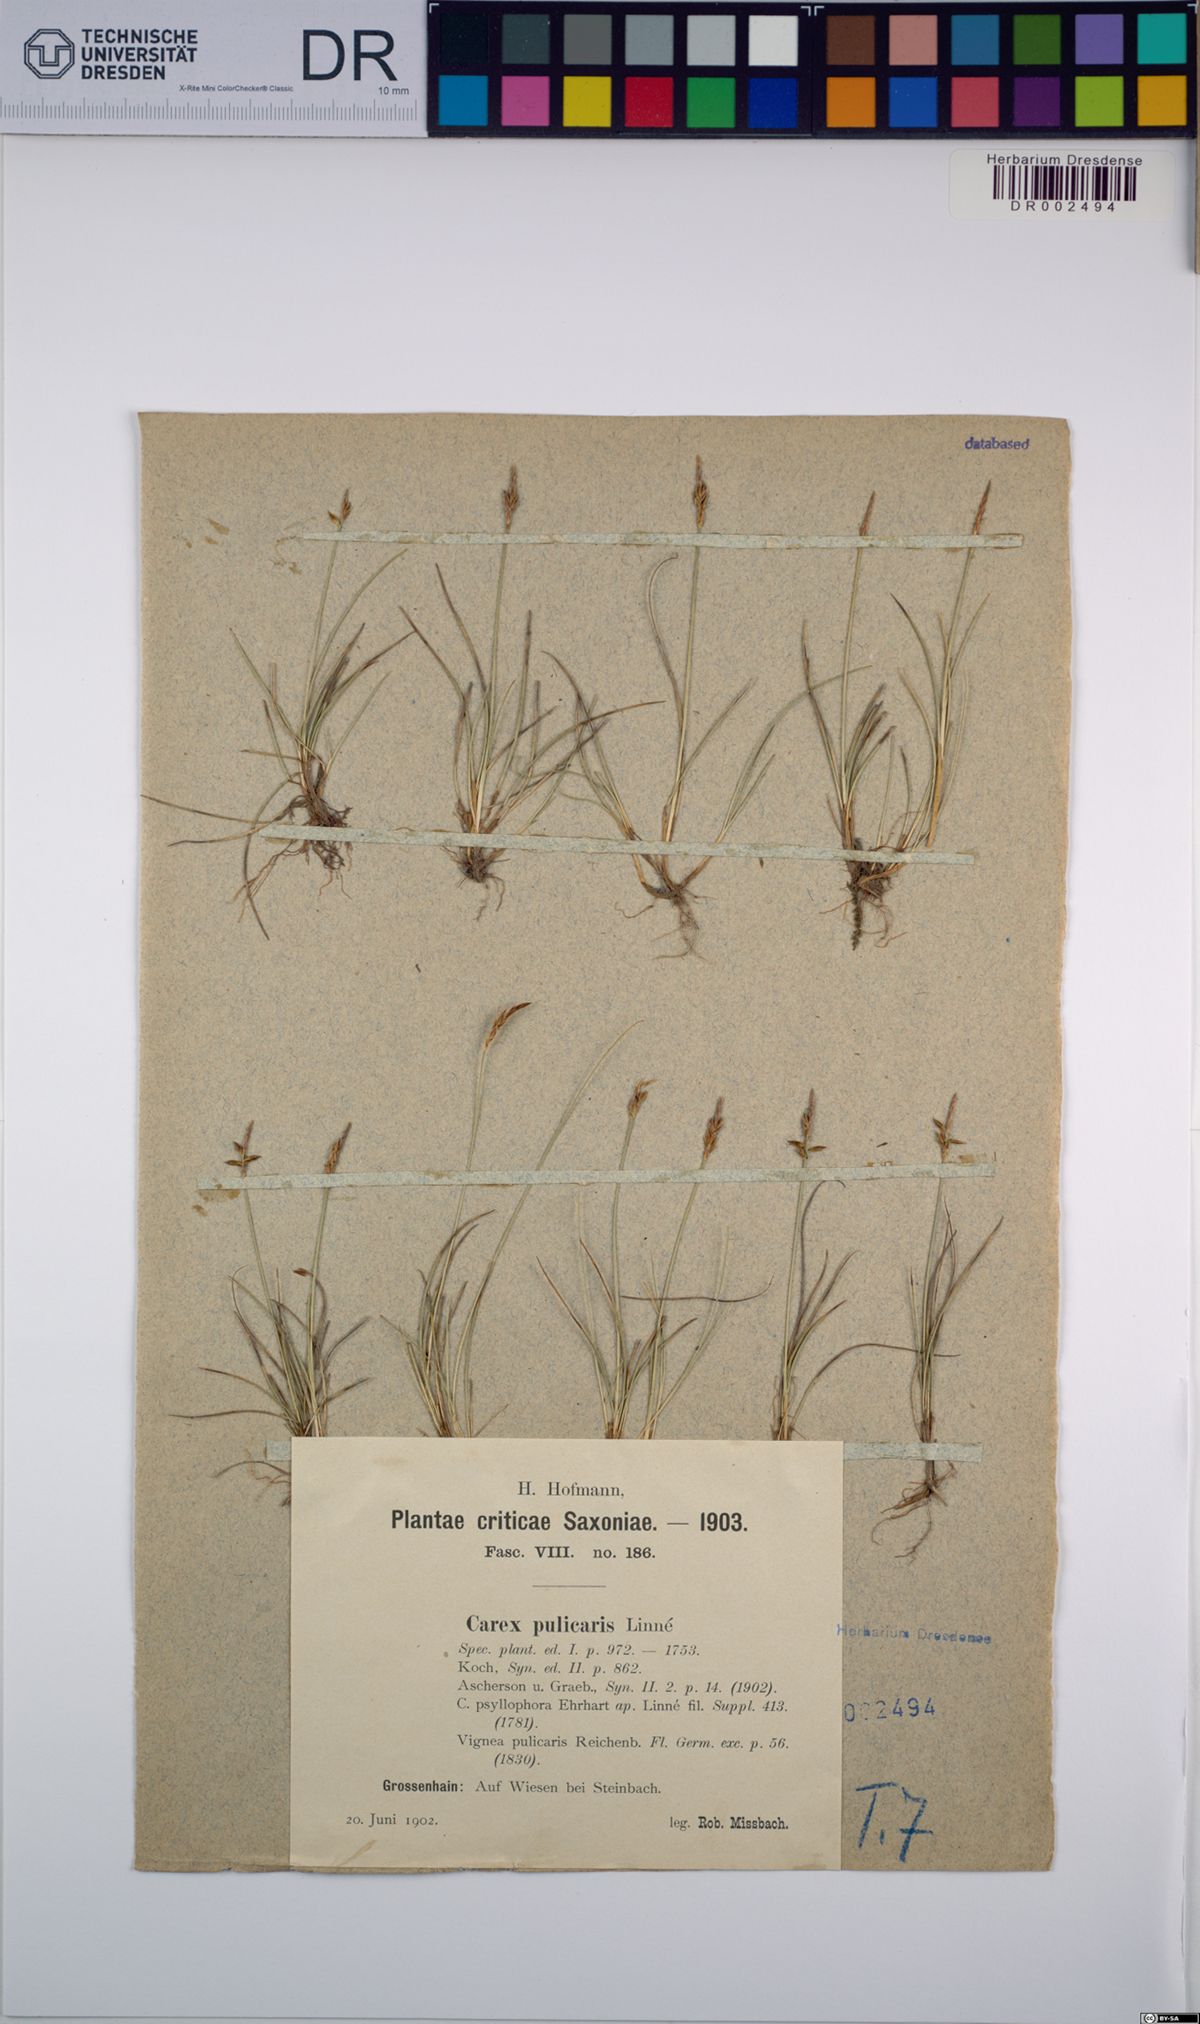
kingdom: Plantae
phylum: Tracheophyta
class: Liliopsida
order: Poales
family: Cyperaceae
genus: Carex
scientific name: Carex pulicaris
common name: Flea sedge
